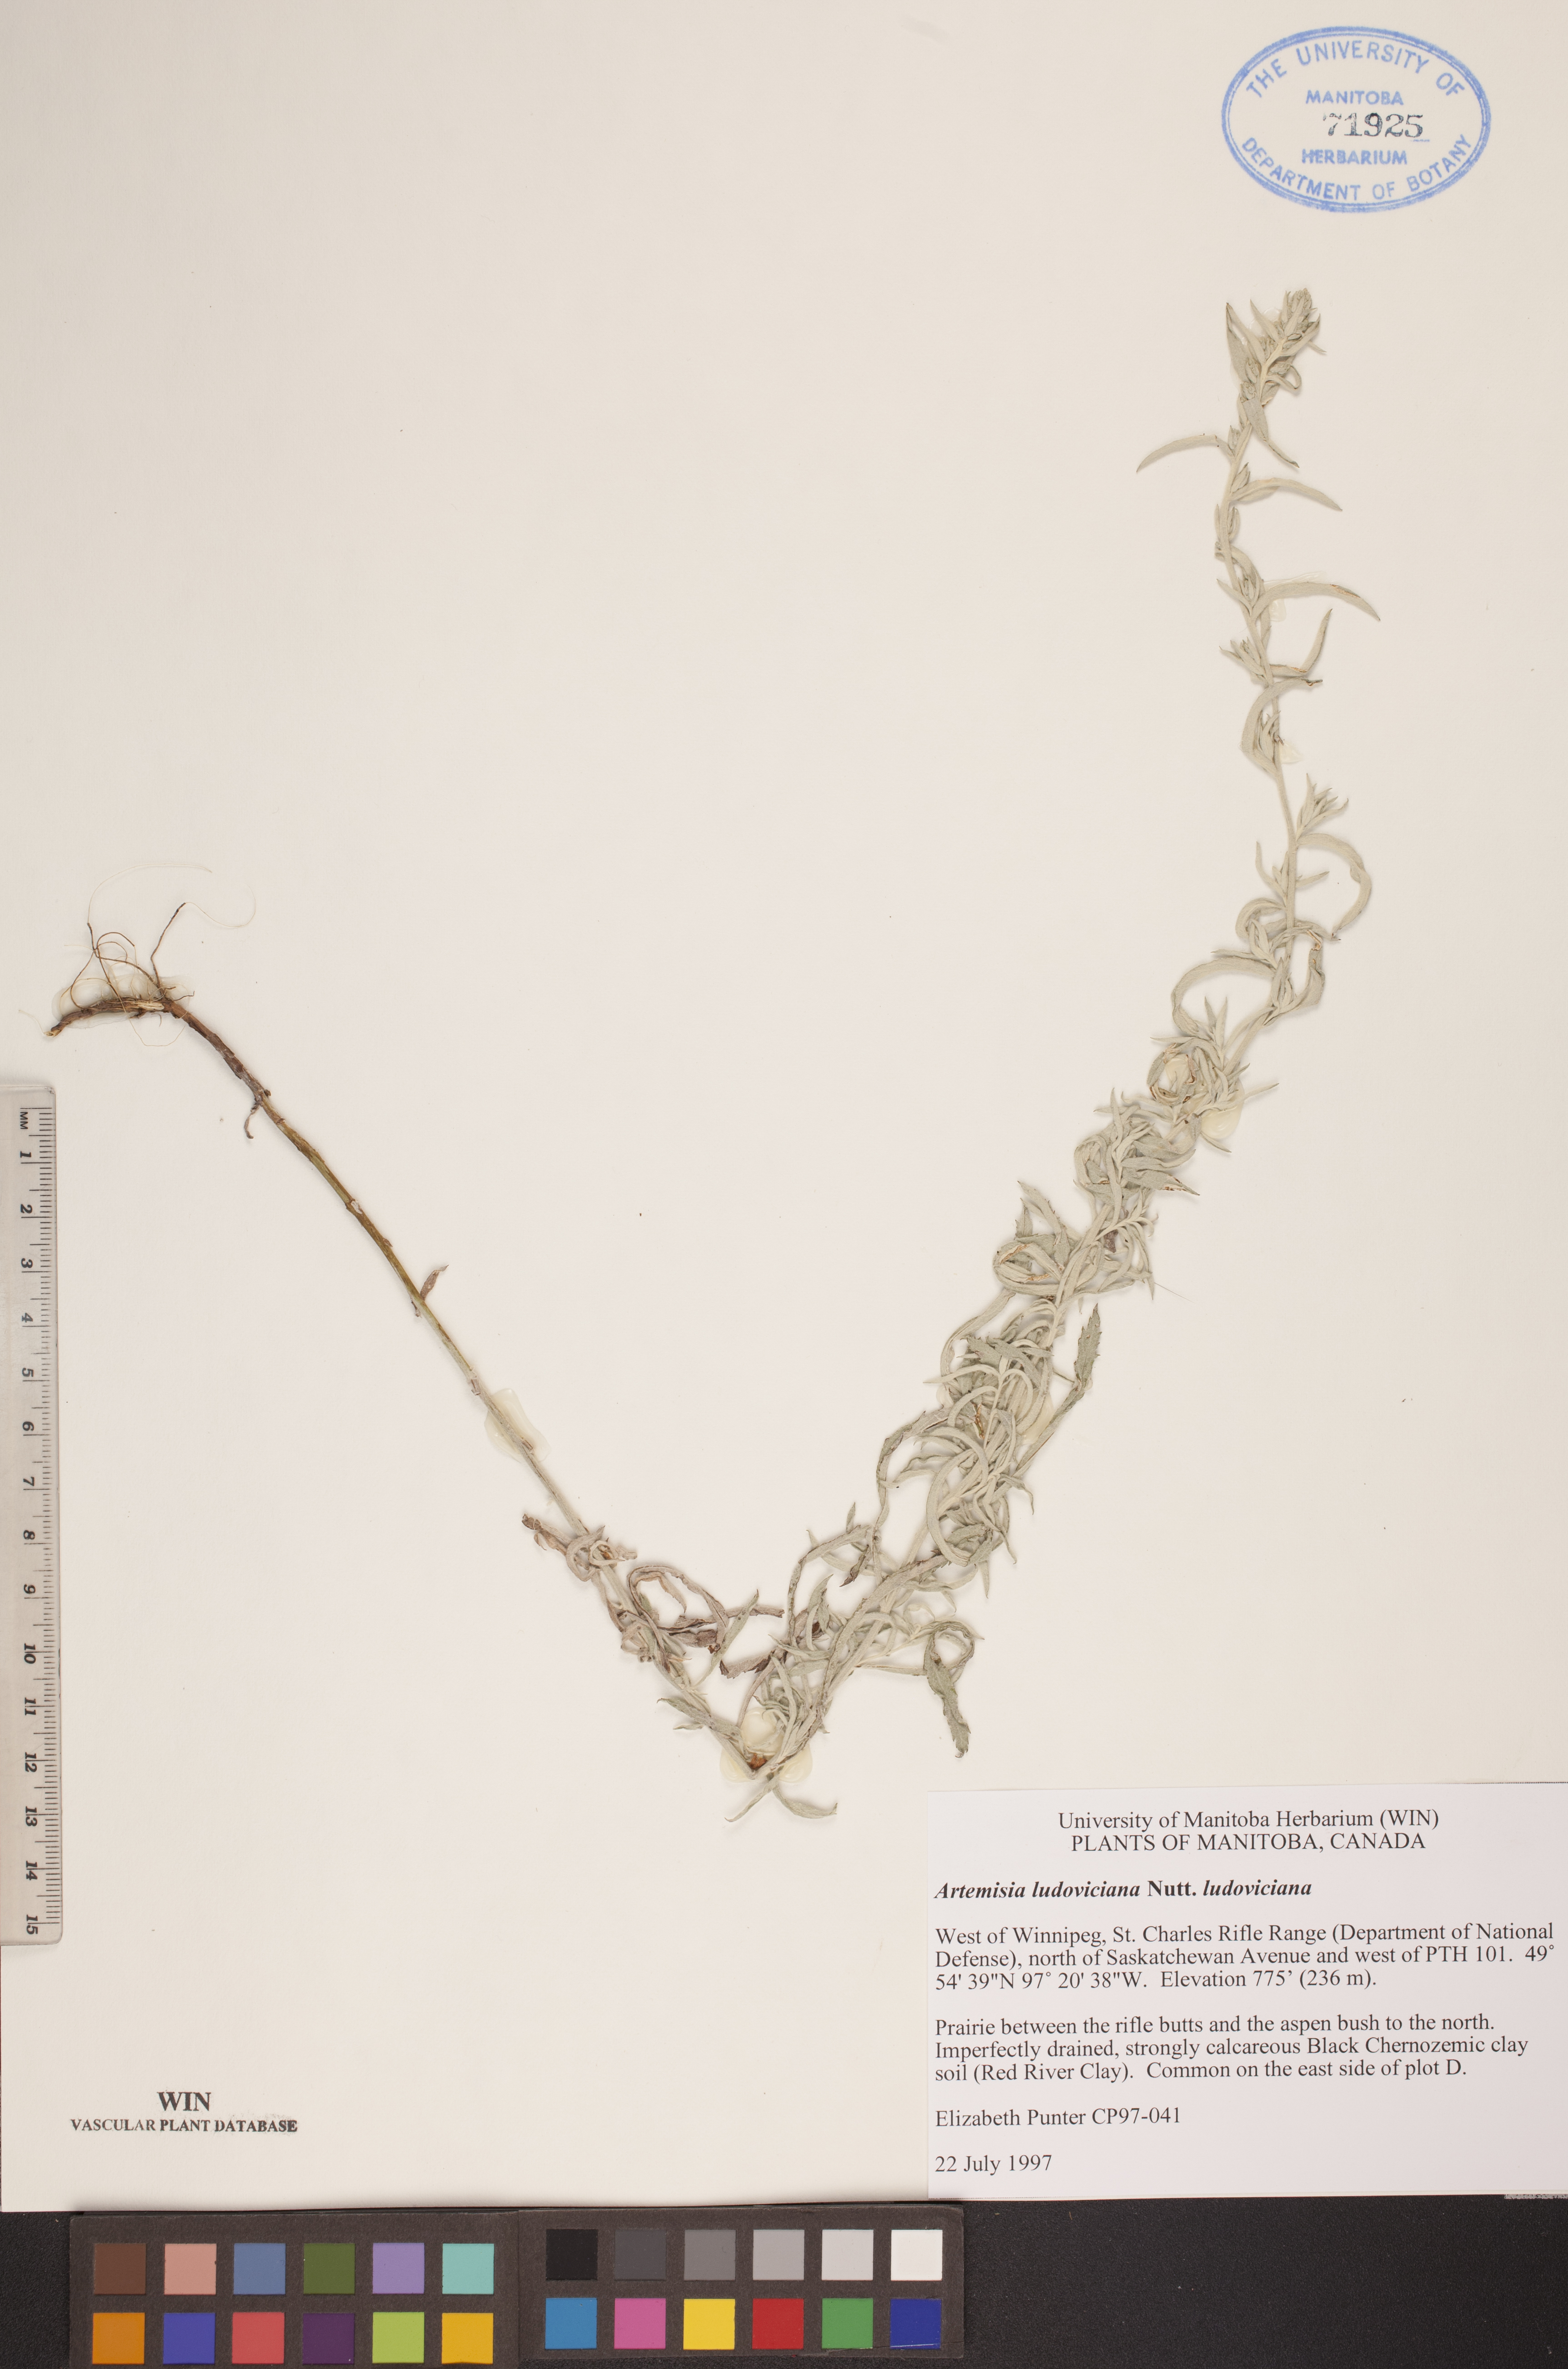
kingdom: Plantae
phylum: Tracheophyta
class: Magnoliopsida
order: Asterales
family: Asteraceae
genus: Artemisia
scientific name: Artemisia ludoviciana
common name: Western mugwort
